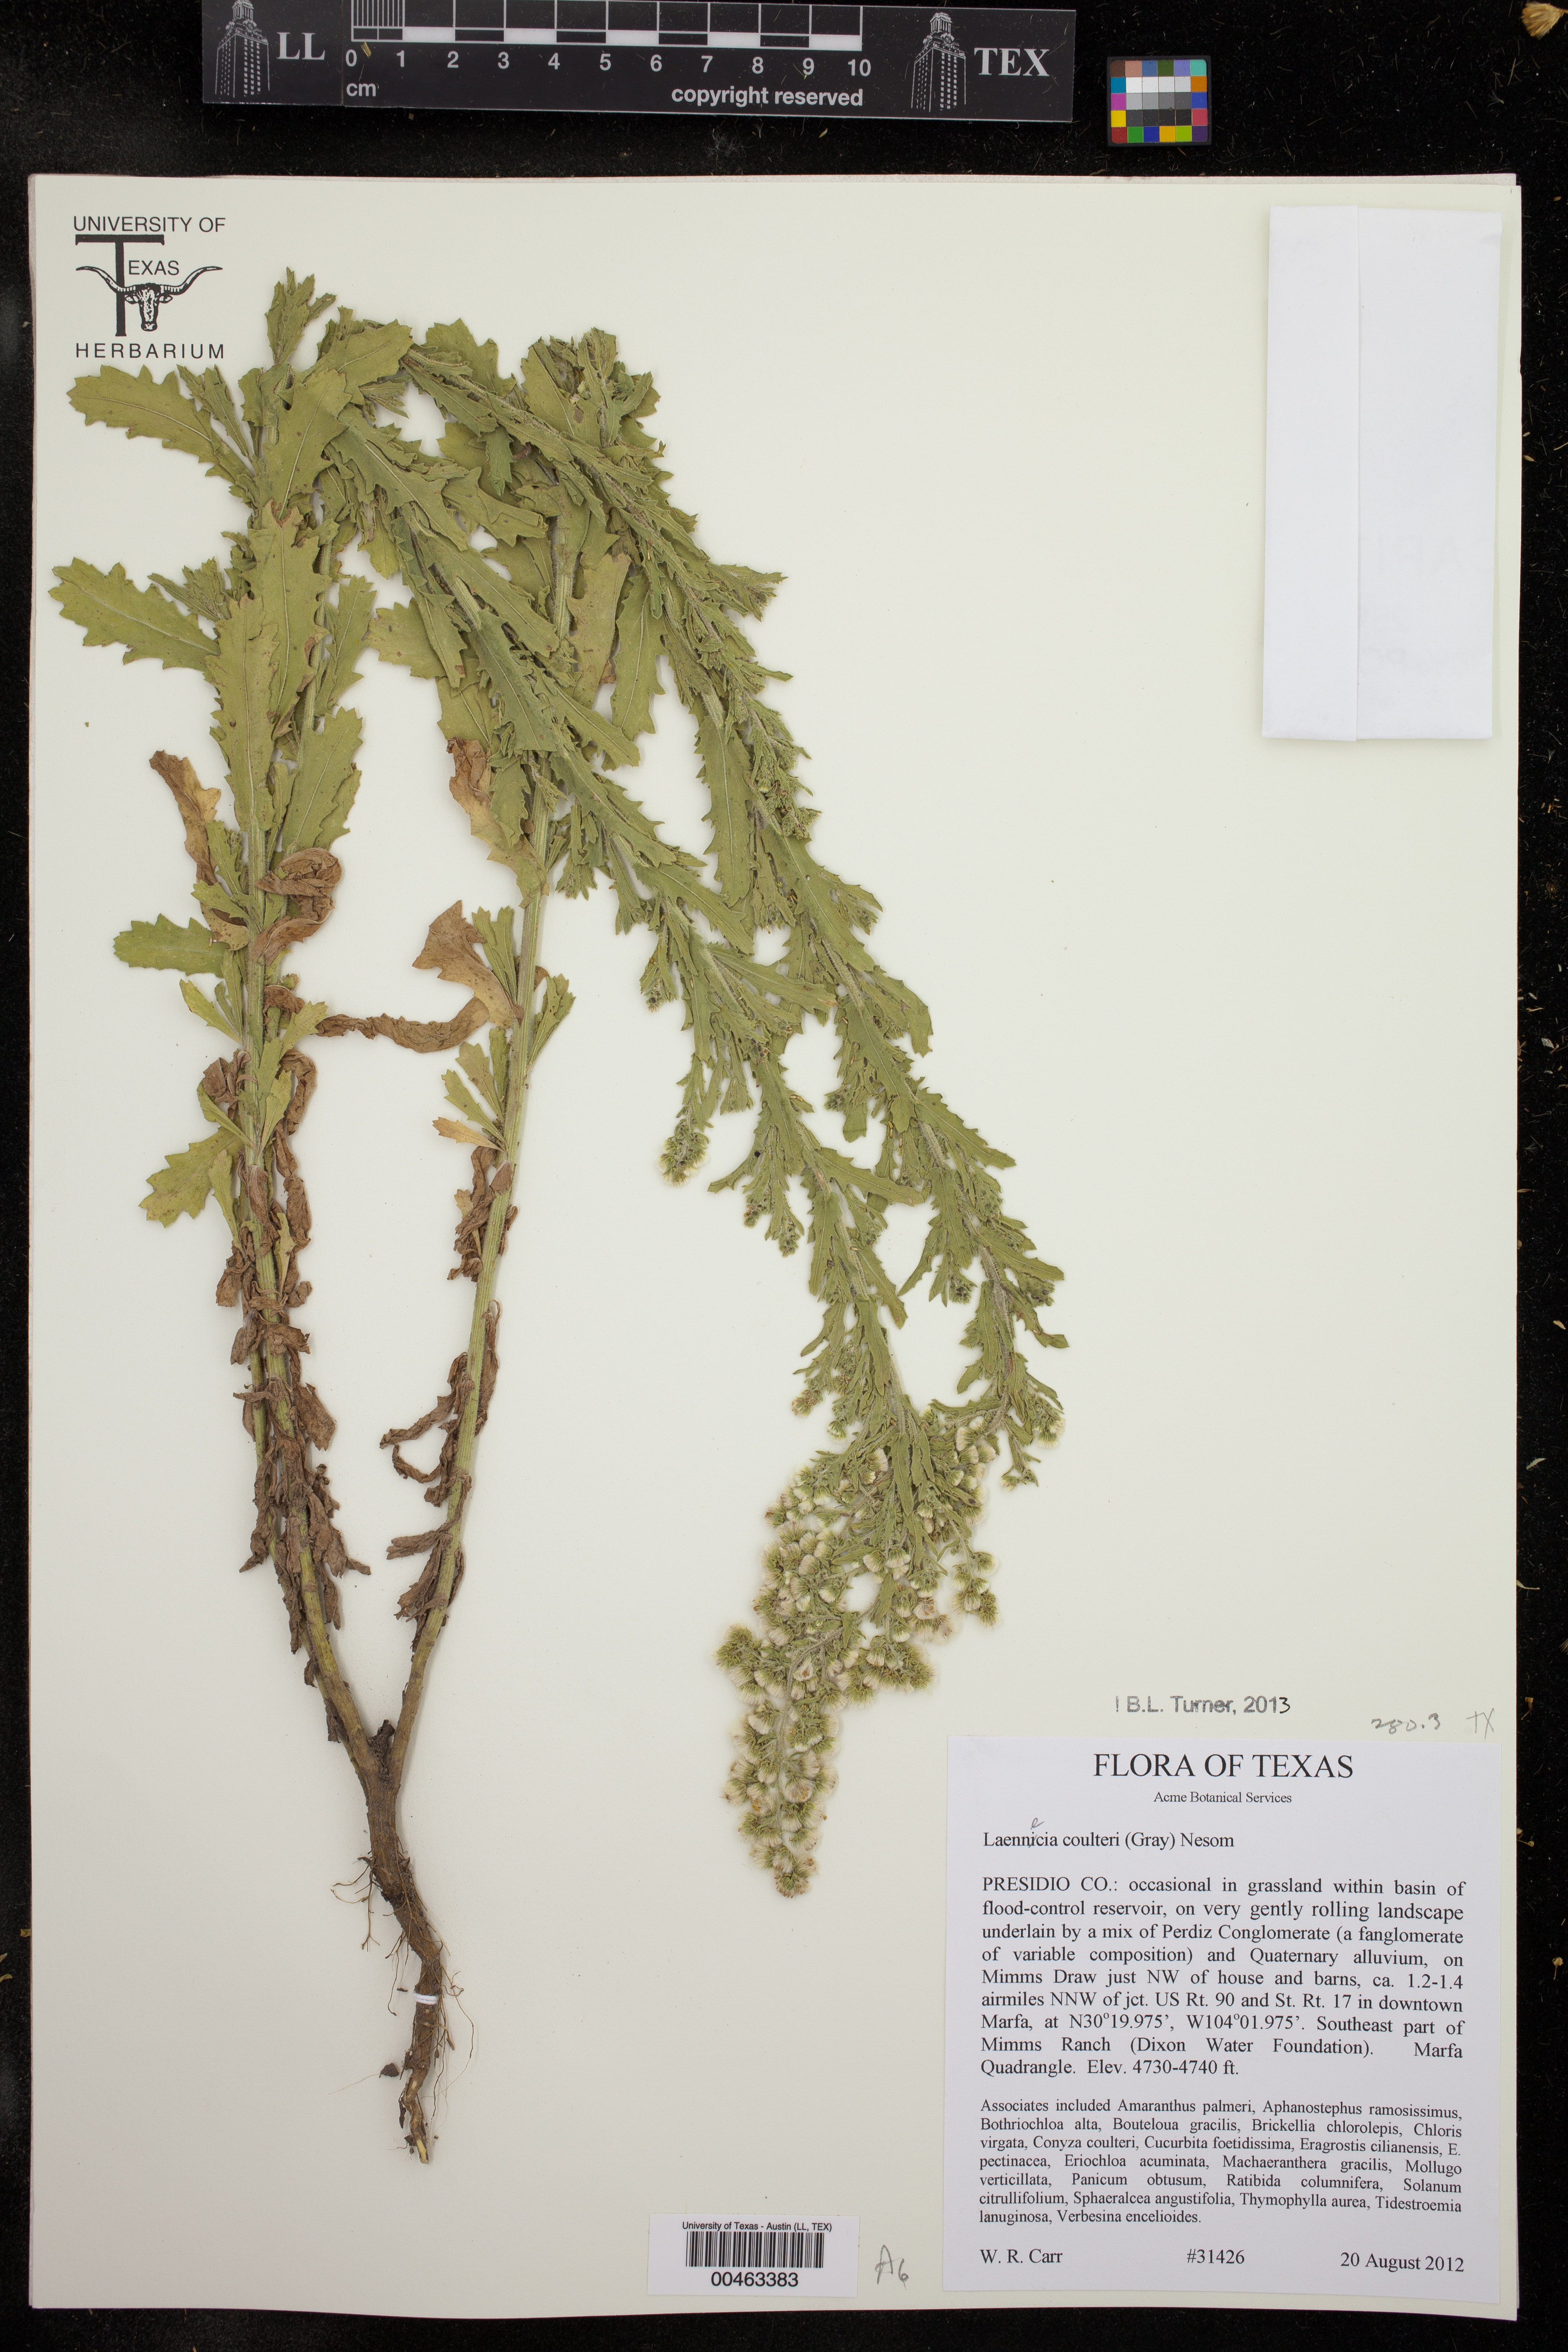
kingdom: Plantae
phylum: Tracheophyta
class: Magnoliopsida
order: Asterales
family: Asteraceae
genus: Laennecia
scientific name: Laennecia coulteri
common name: Coulter's woolwort
